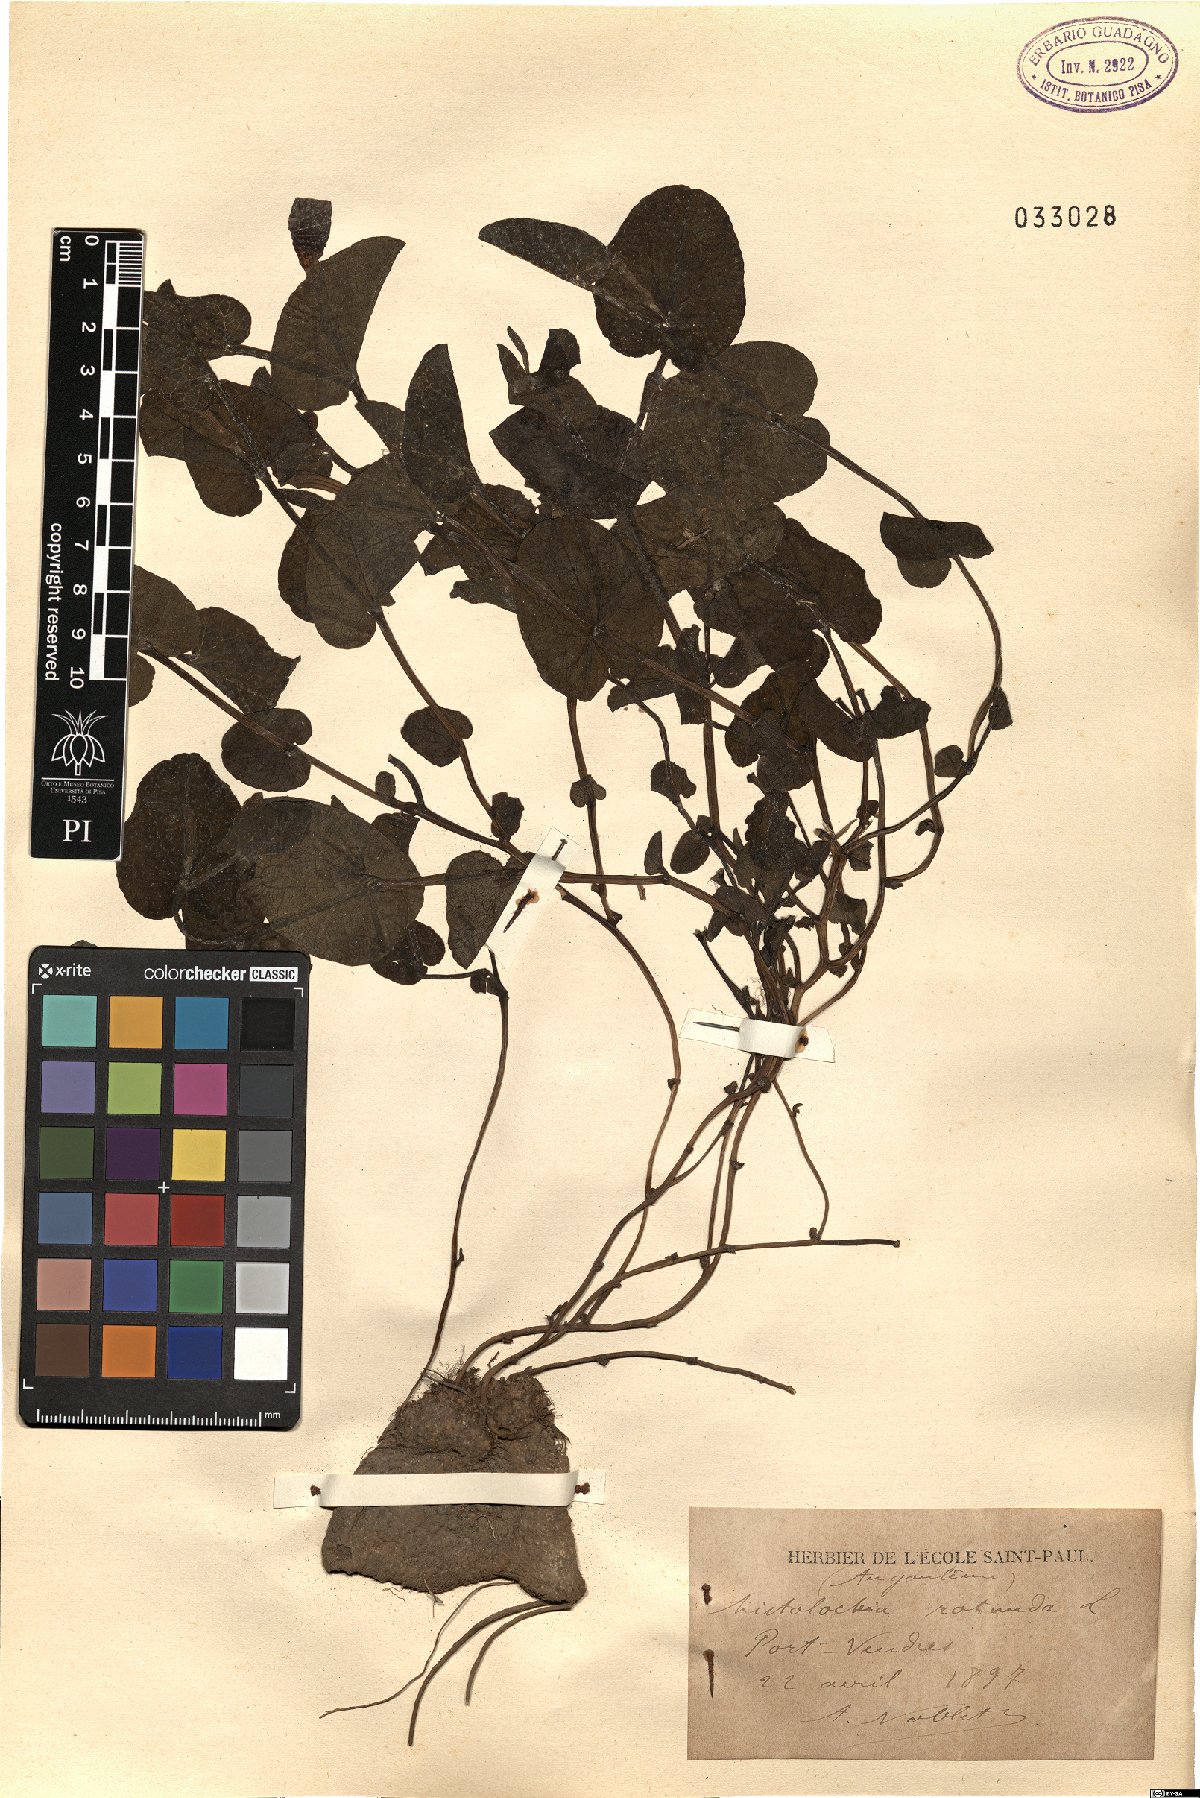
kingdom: Plantae
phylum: Tracheophyta
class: Magnoliopsida
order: Piperales
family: Aristolochiaceae
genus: Aristolochia
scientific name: Aristolochia rotunda
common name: Smearwort
